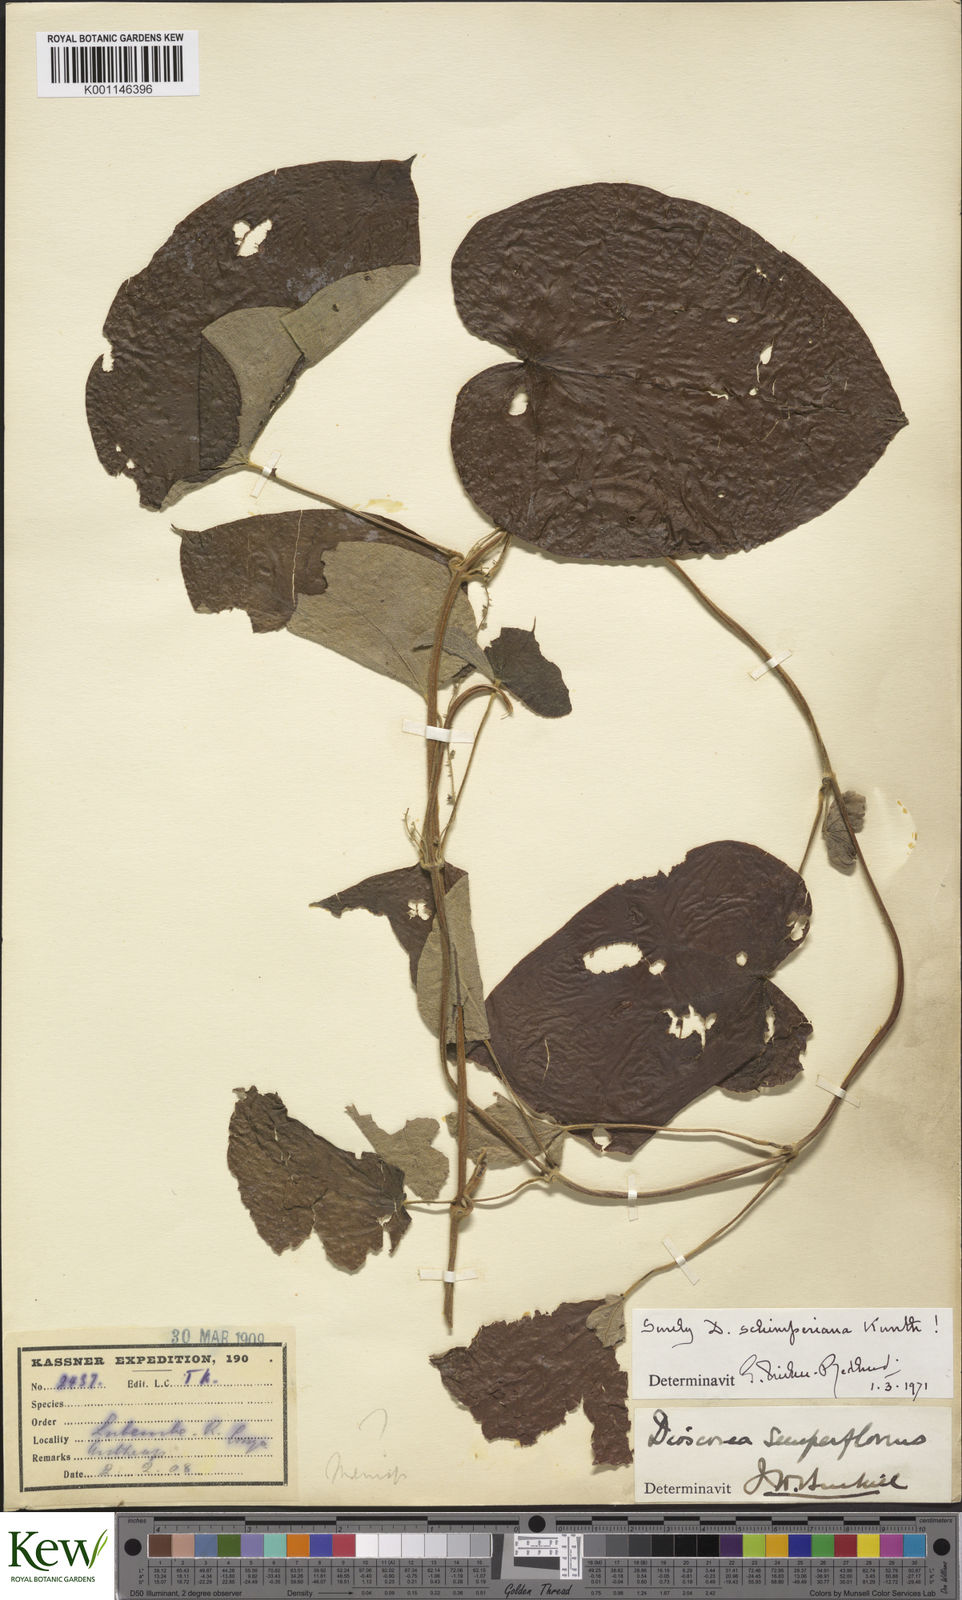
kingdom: Plantae
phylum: Tracheophyta
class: Liliopsida
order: Dioscoreales
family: Dioscoreaceae
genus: Dioscorea
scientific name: Dioscorea schimperiana
